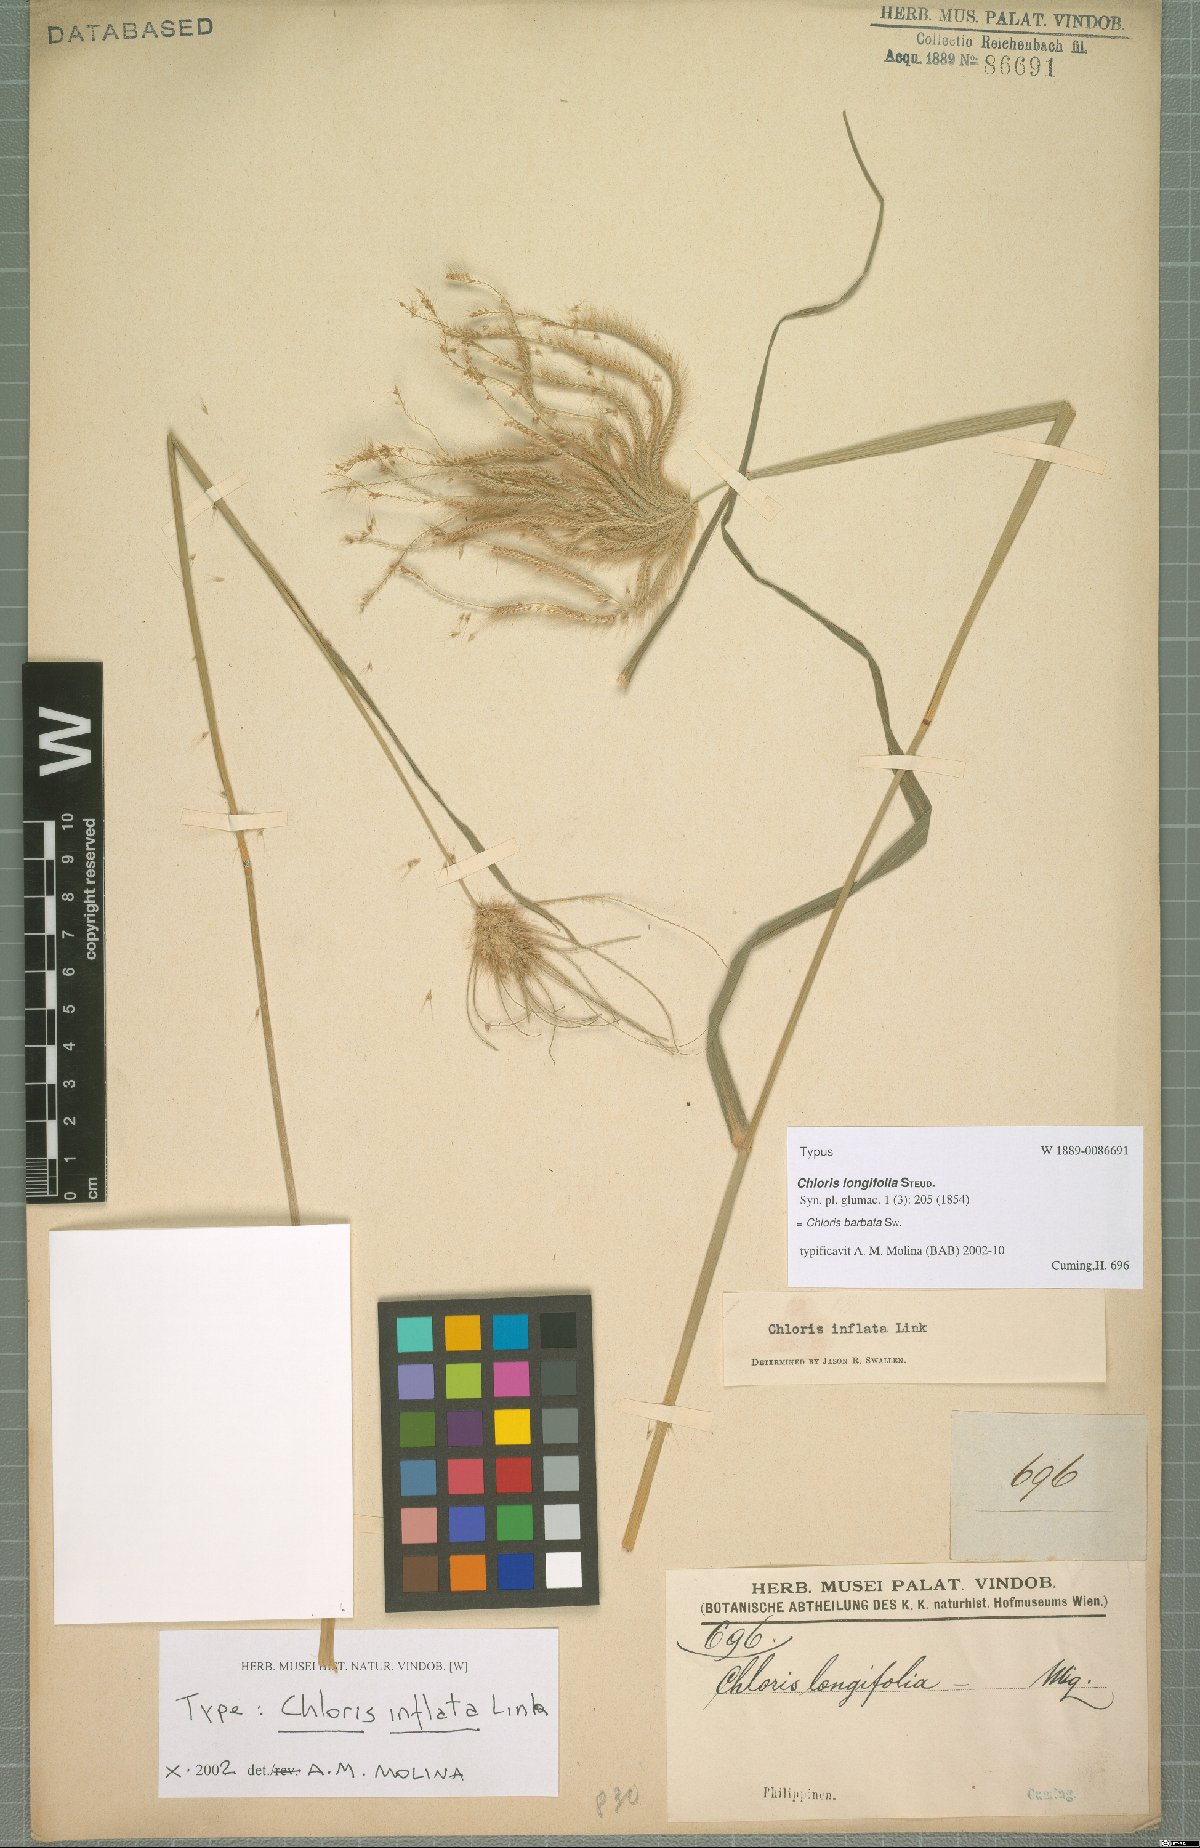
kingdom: Plantae
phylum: Tracheophyta
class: Liliopsida
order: Poales
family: Poaceae
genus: Chloris
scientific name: Chloris barbata
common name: Swollen fingergrass
